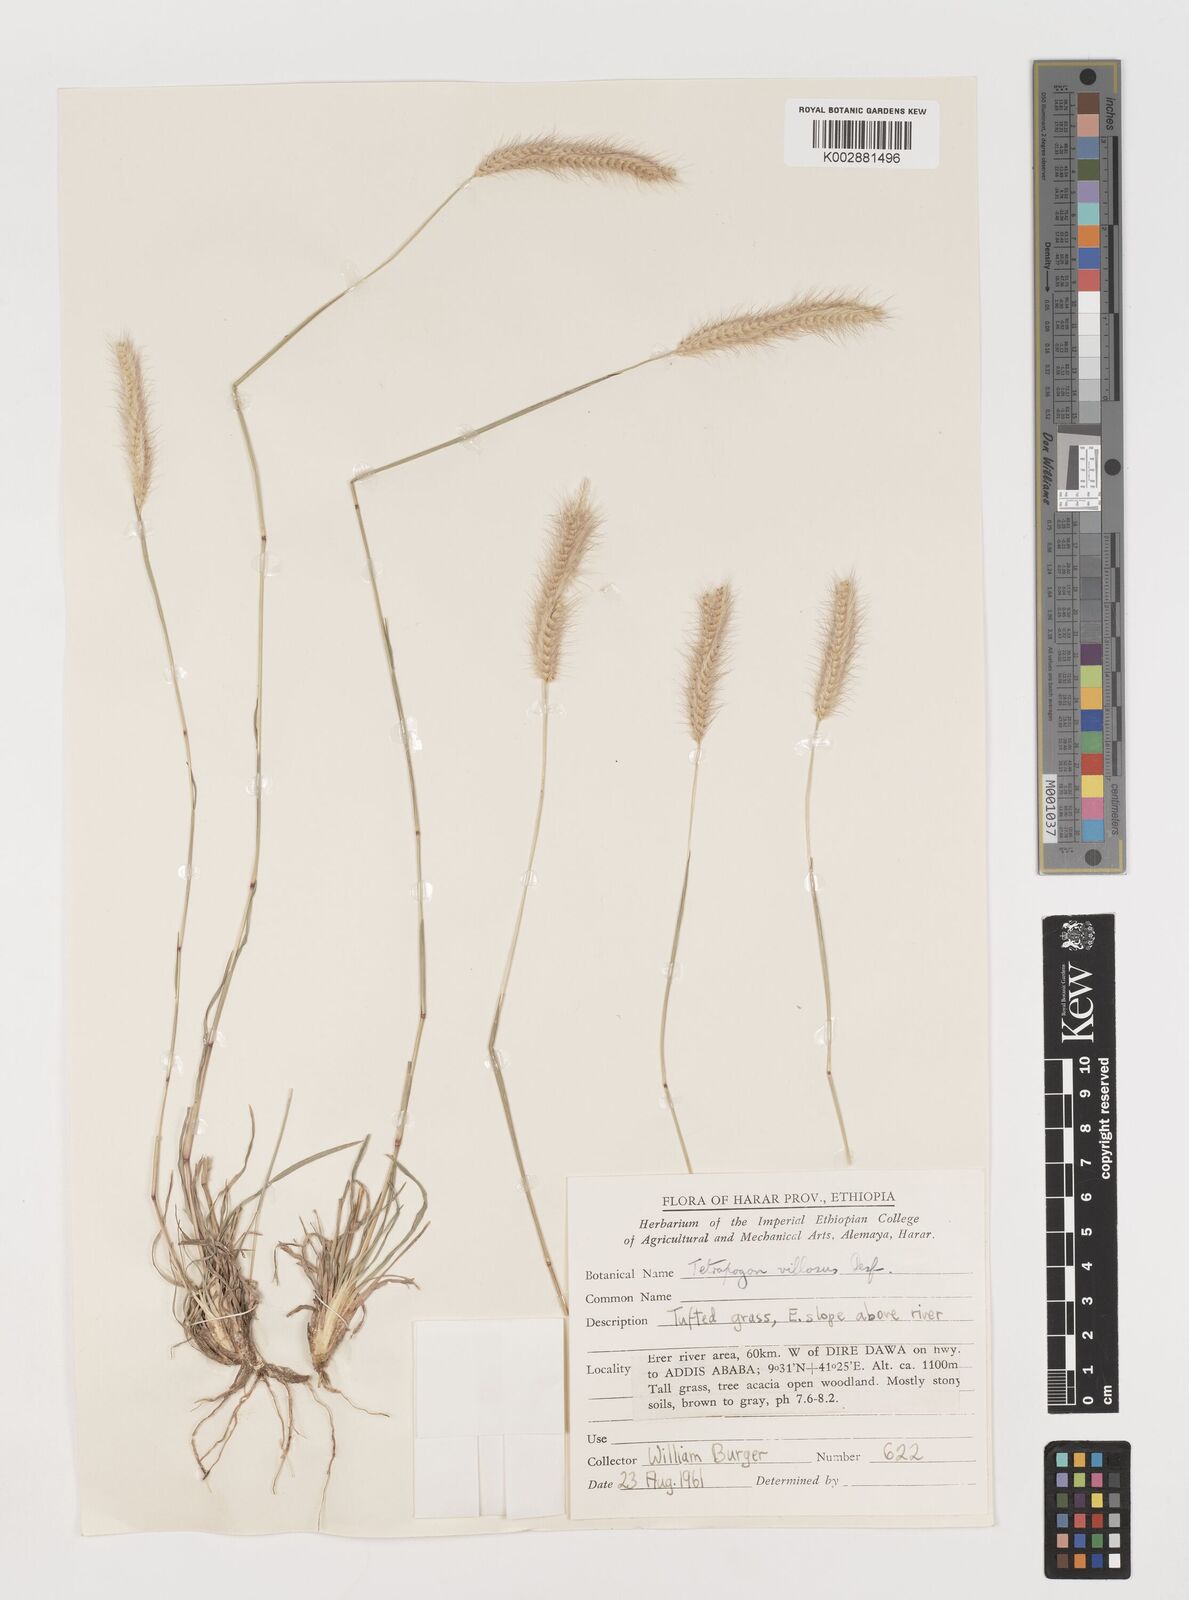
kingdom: Plantae
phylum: Tracheophyta
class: Liliopsida
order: Poales
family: Poaceae
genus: Tetrapogon
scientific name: Tetrapogon villosus
